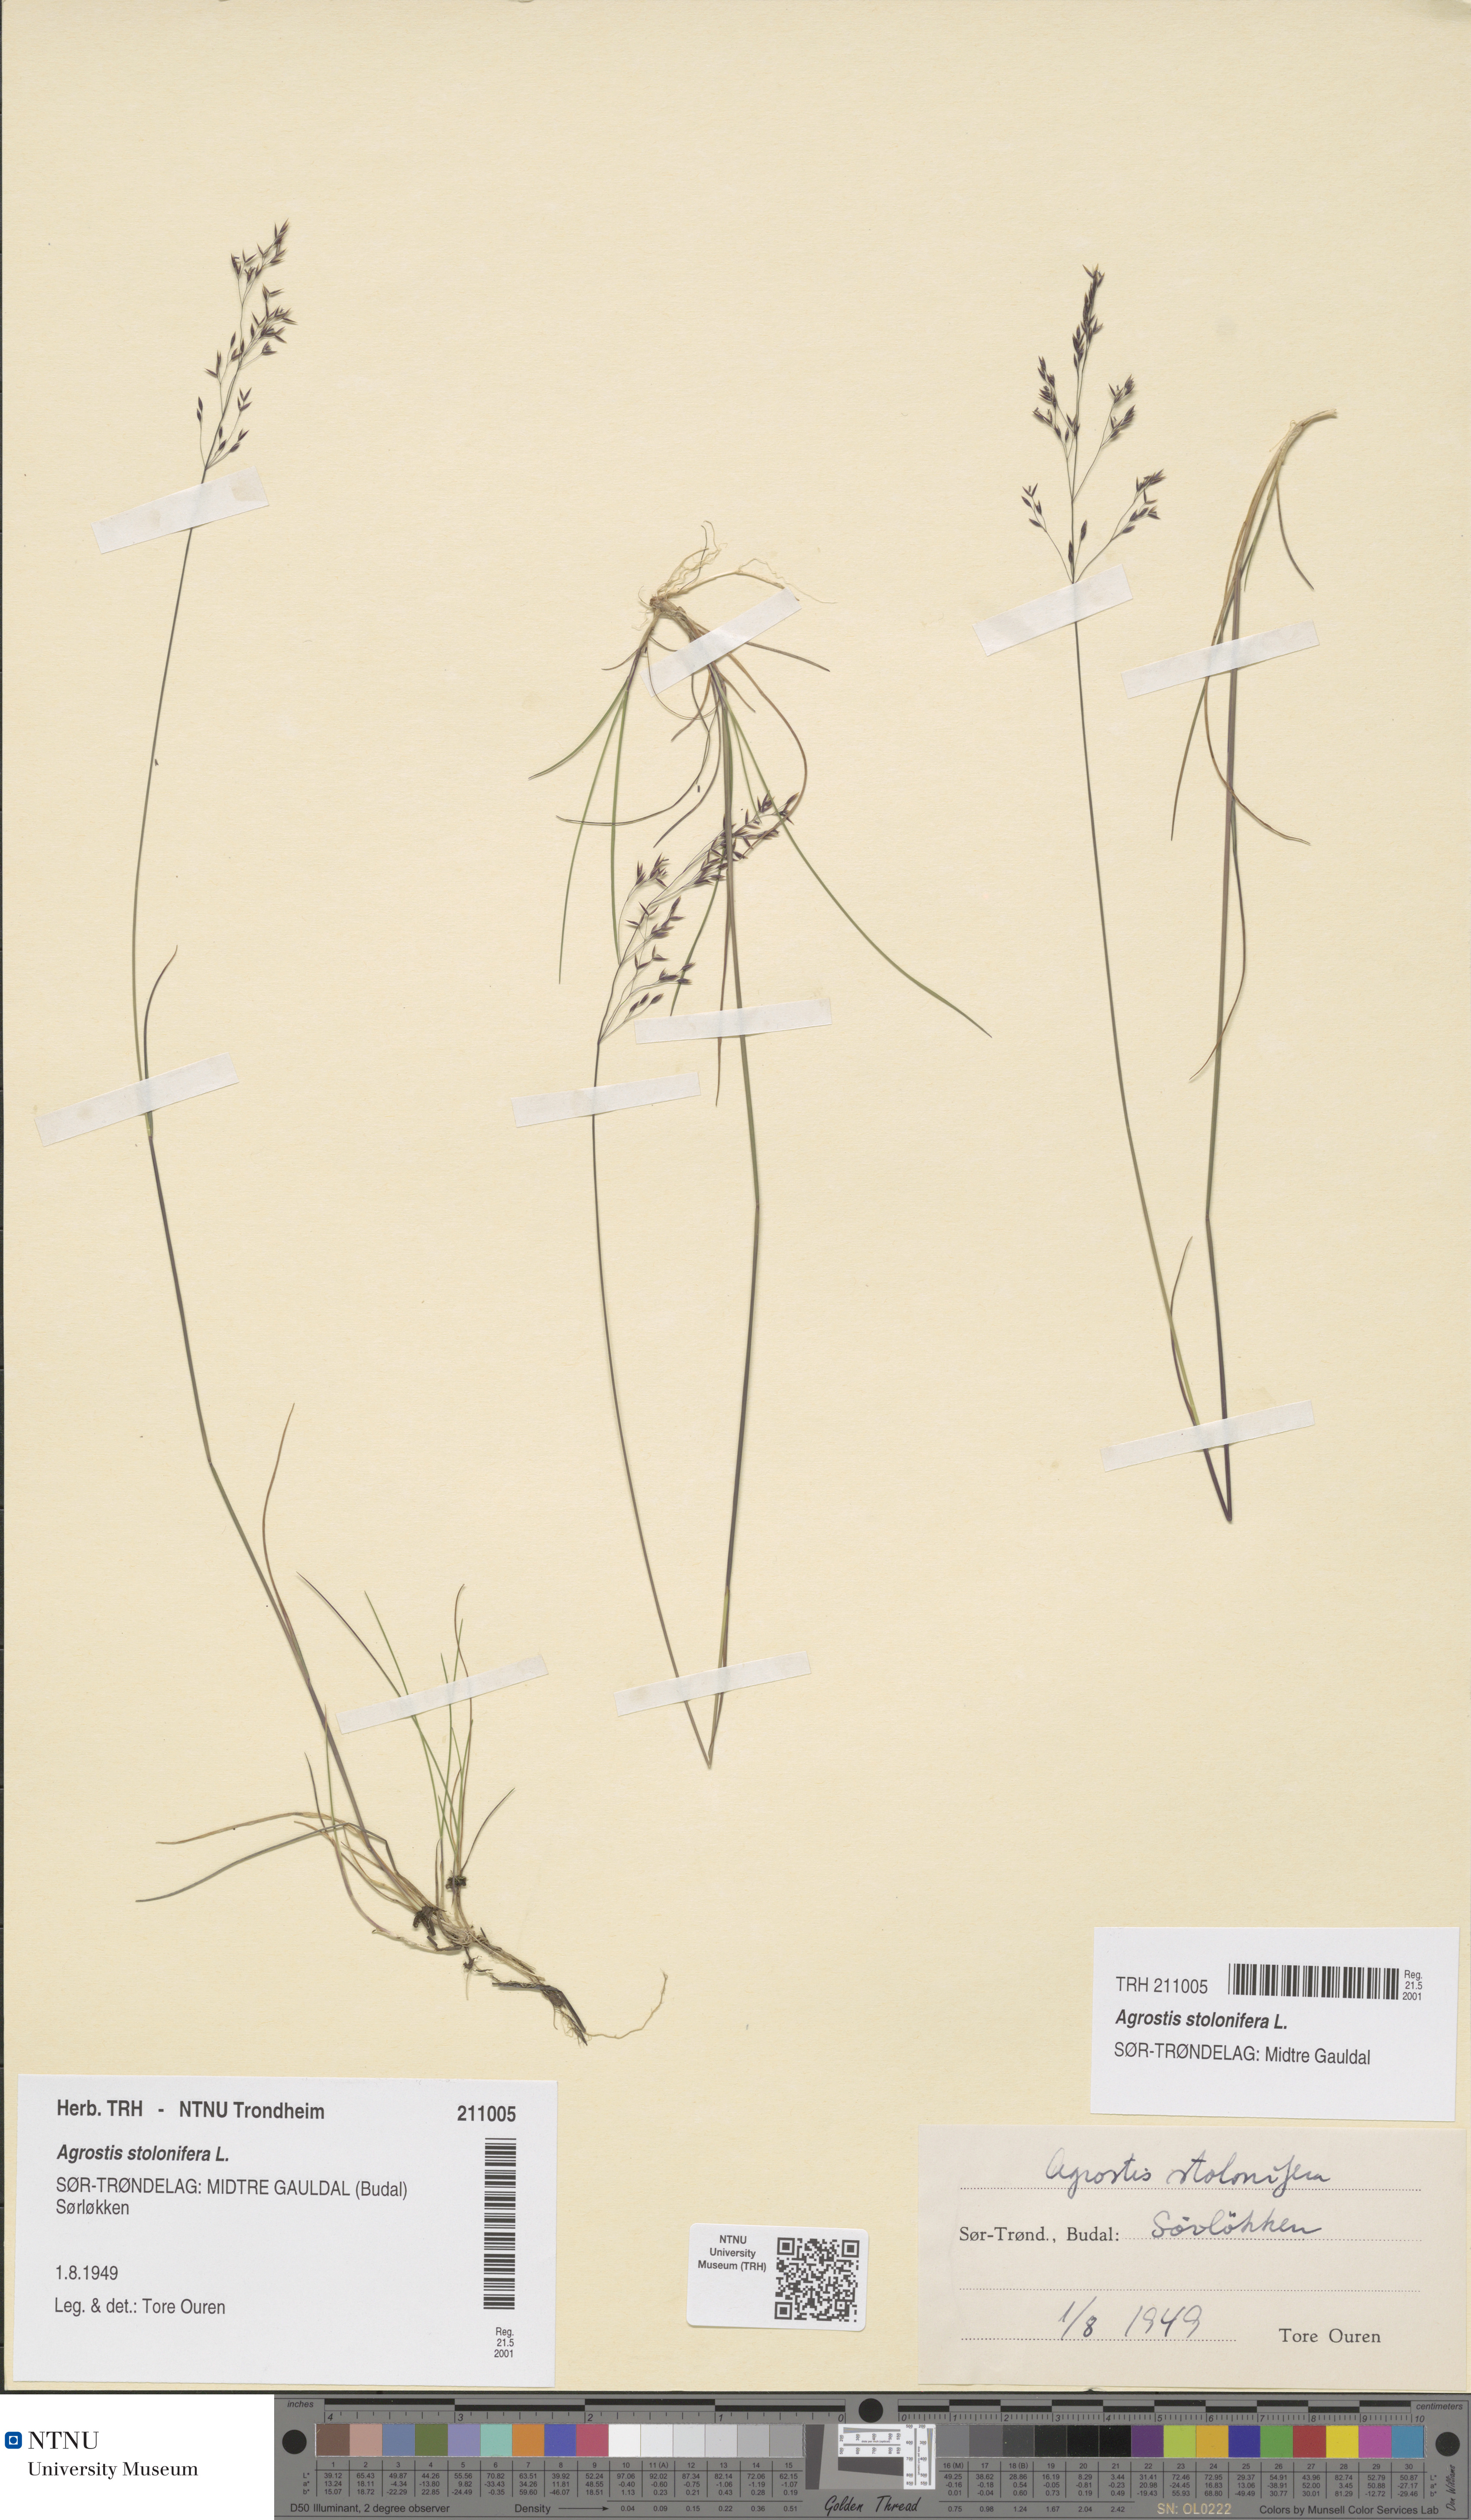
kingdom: Plantae
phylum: Tracheophyta
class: Liliopsida
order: Poales
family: Poaceae
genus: Agrostis
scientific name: Agrostis stolonifera
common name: Creeping bentgrass
